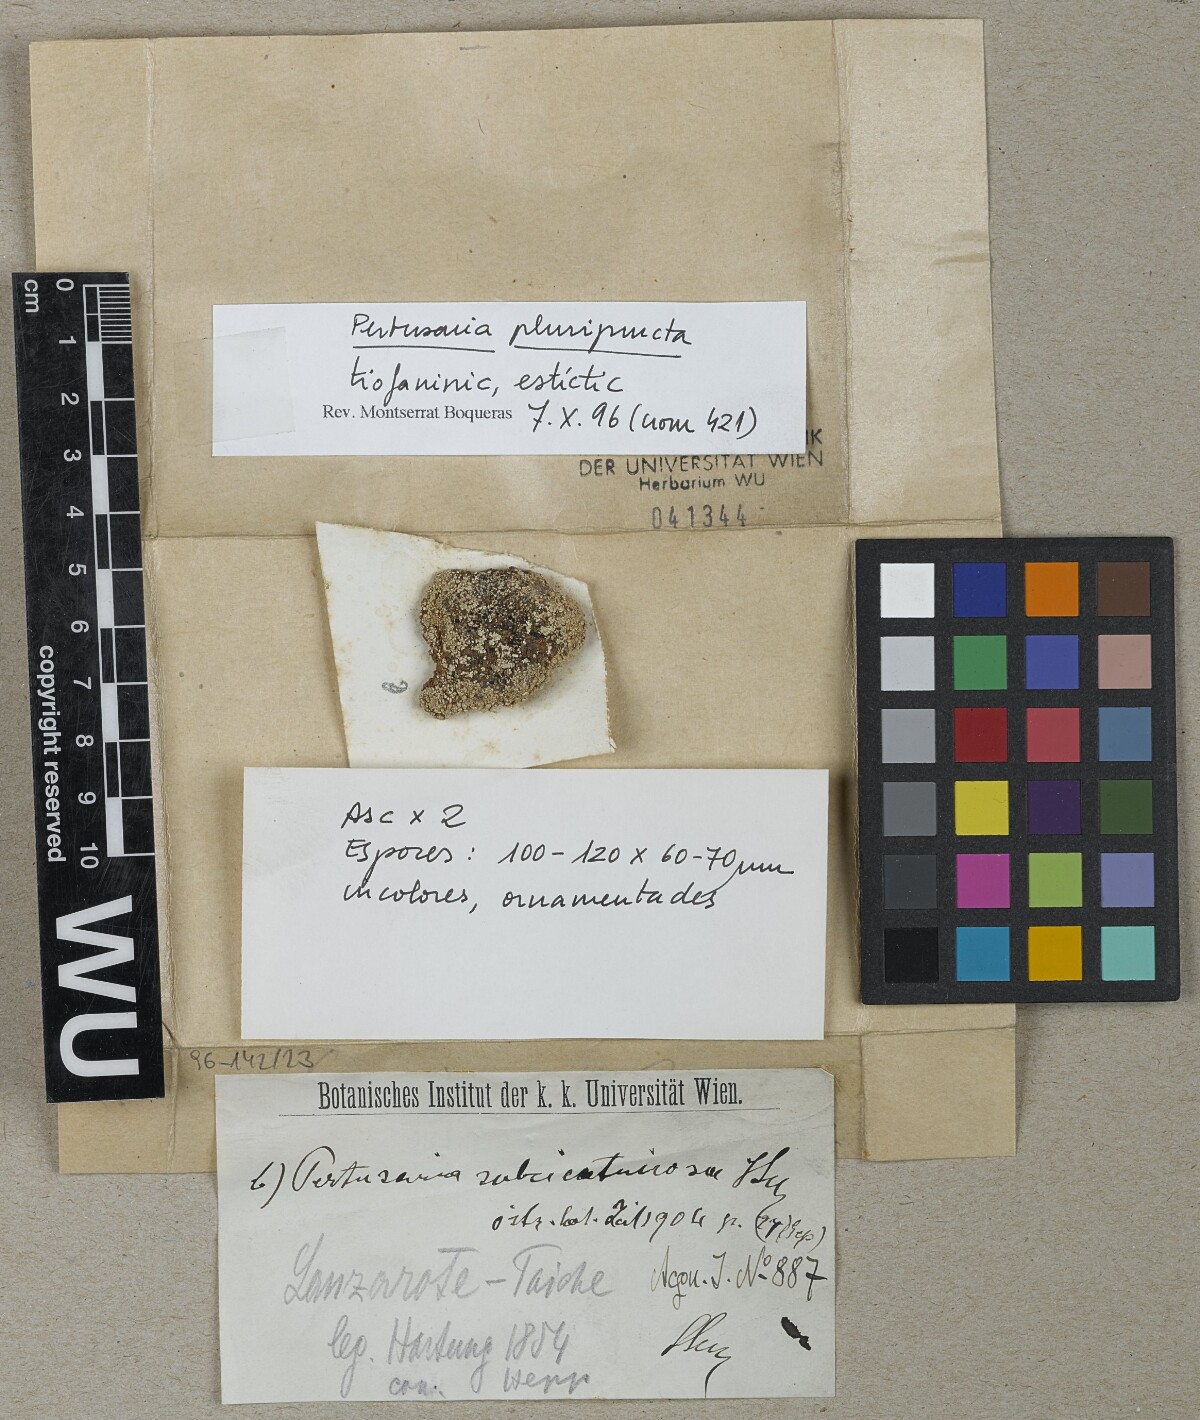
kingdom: Fungi
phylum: Ascomycota
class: Lecanoromycetes
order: Pertusariales
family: Pertusariaceae
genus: Pertusaria
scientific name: Pertusaria pluripuncta
